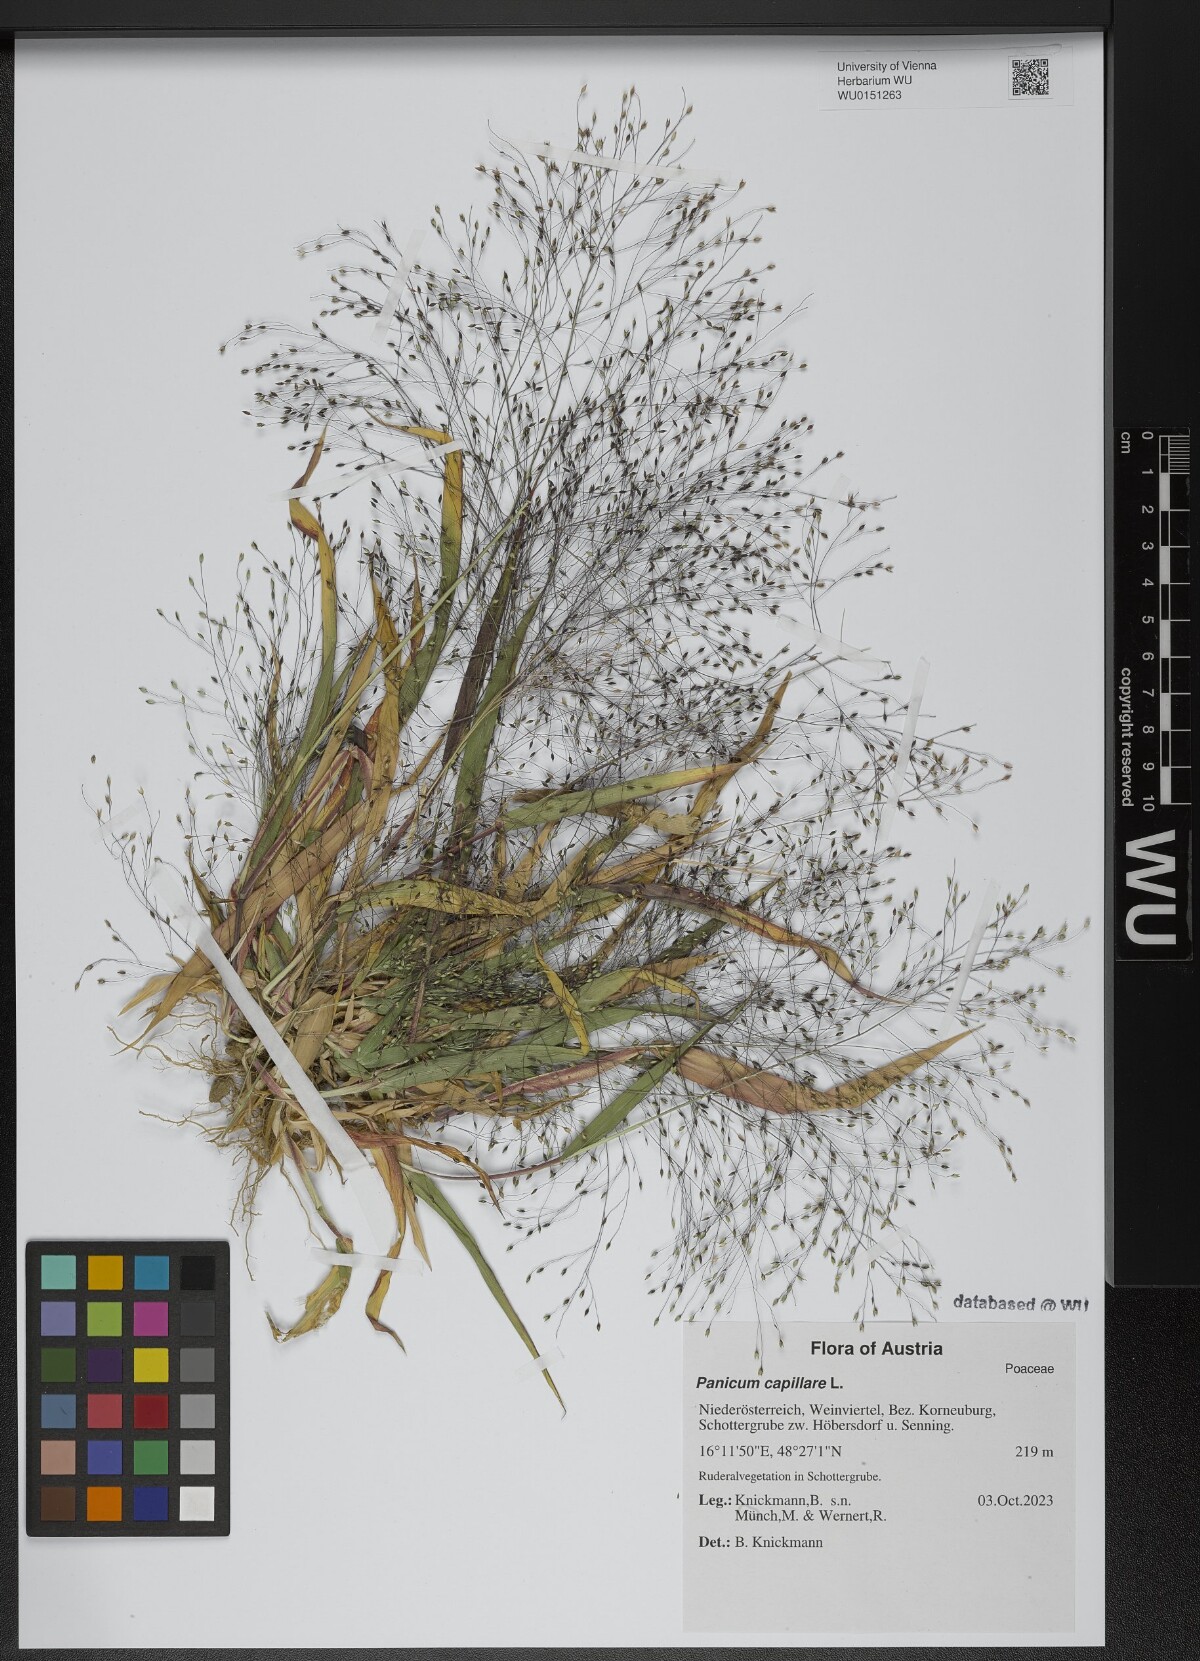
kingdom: Plantae
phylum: Tracheophyta
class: Liliopsida
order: Poales
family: Poaceae
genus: Panicum
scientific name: Panicum capillare
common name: Witch-grass
